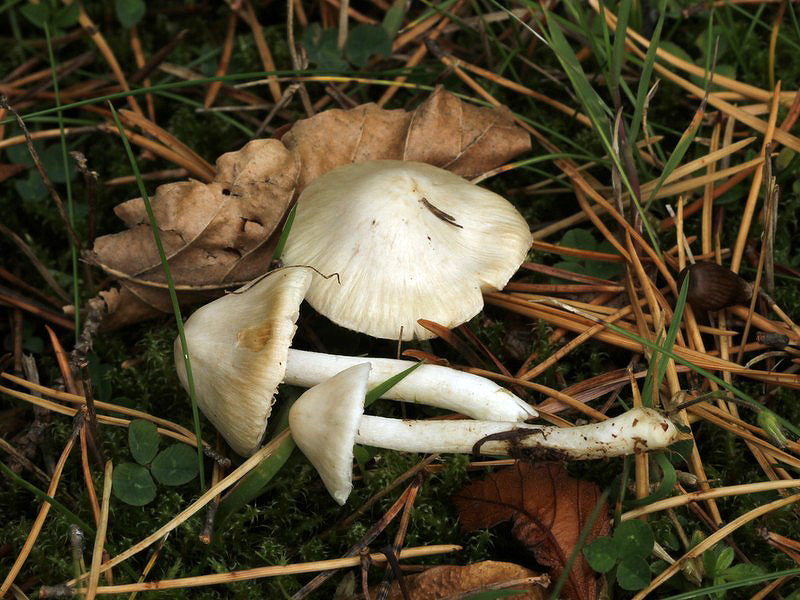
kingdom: Fungi
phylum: Basidiomycota
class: Agaricomycetes
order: Agaricales
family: Inocybaceae
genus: Inocybe
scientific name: Inocybe
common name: almindelig trævlhat
